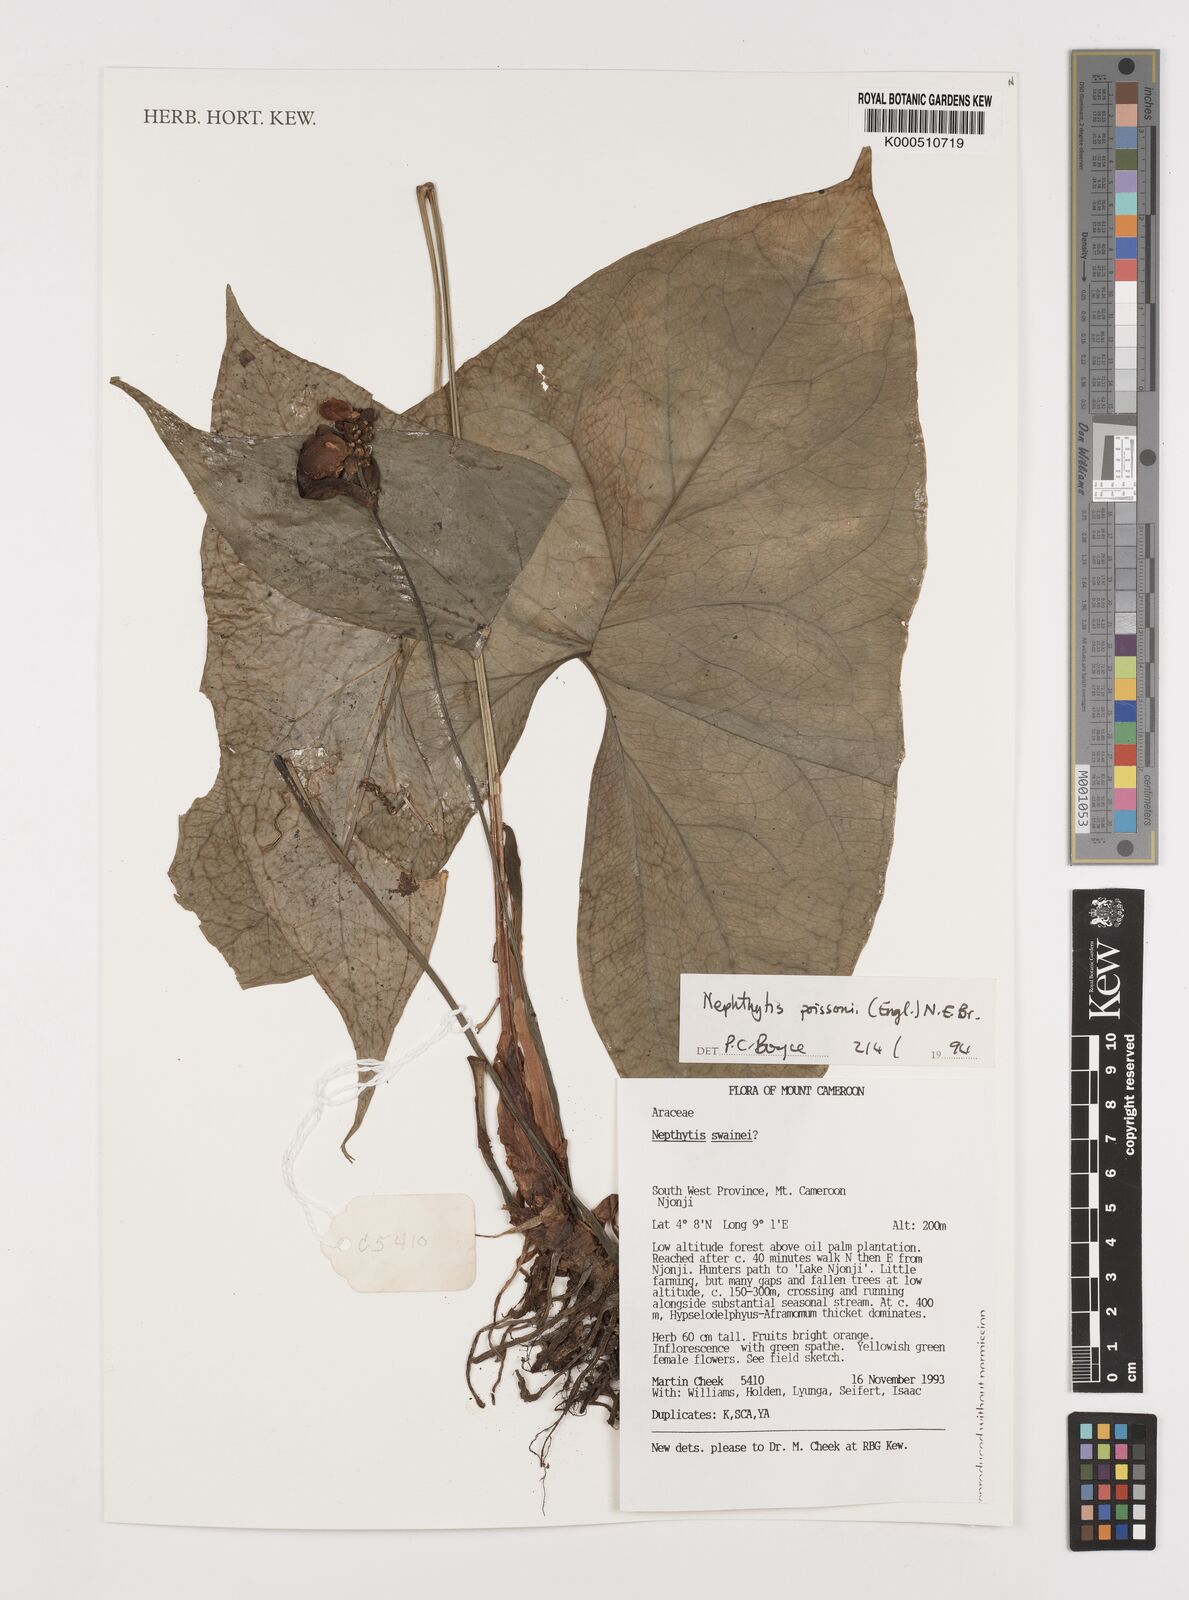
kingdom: Plantae
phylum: Tracheophyta
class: Liliopsida
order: Alismatales
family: Araceae
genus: Nephthytis
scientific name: Nephthytis poissonii
